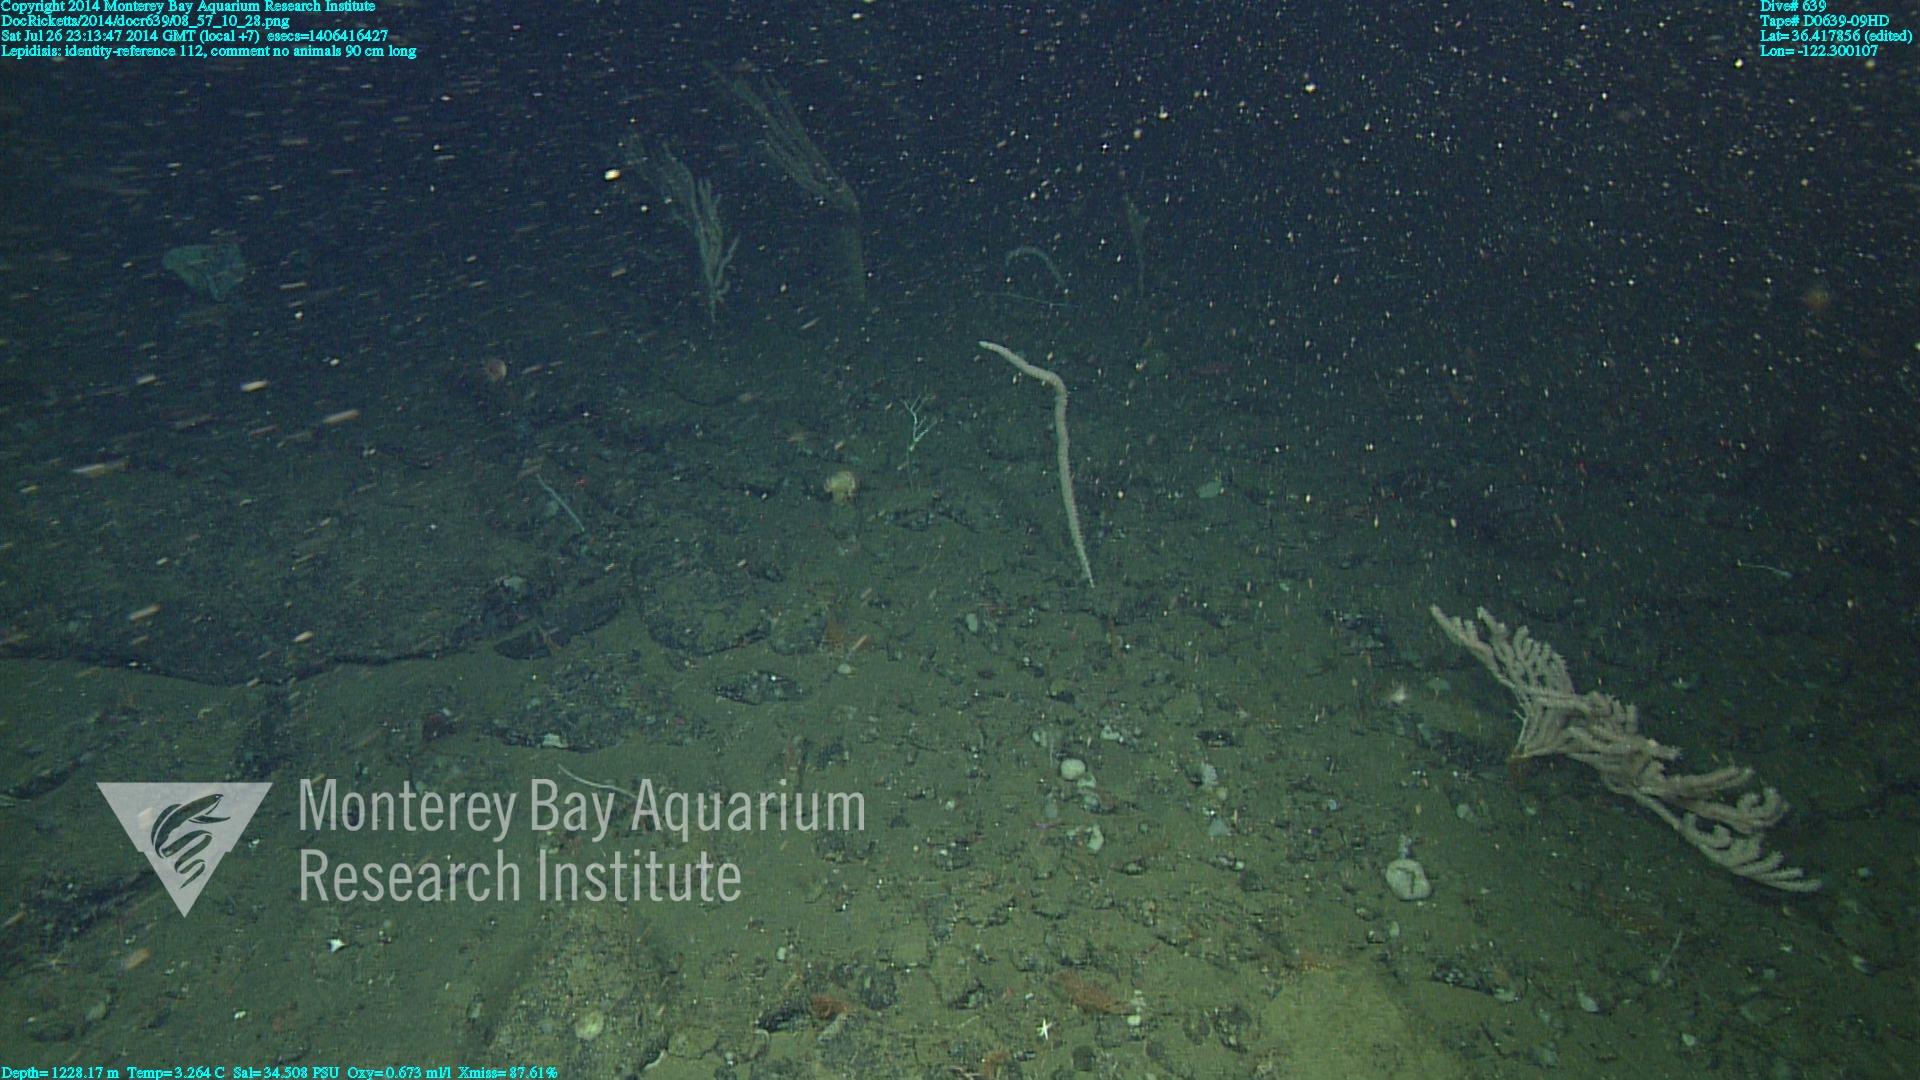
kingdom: Animalia
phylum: Cnidaria
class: Anthozoa
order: Scleralcyonacea
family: Keratoisididae
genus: Lepidisis
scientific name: Lepidisis
